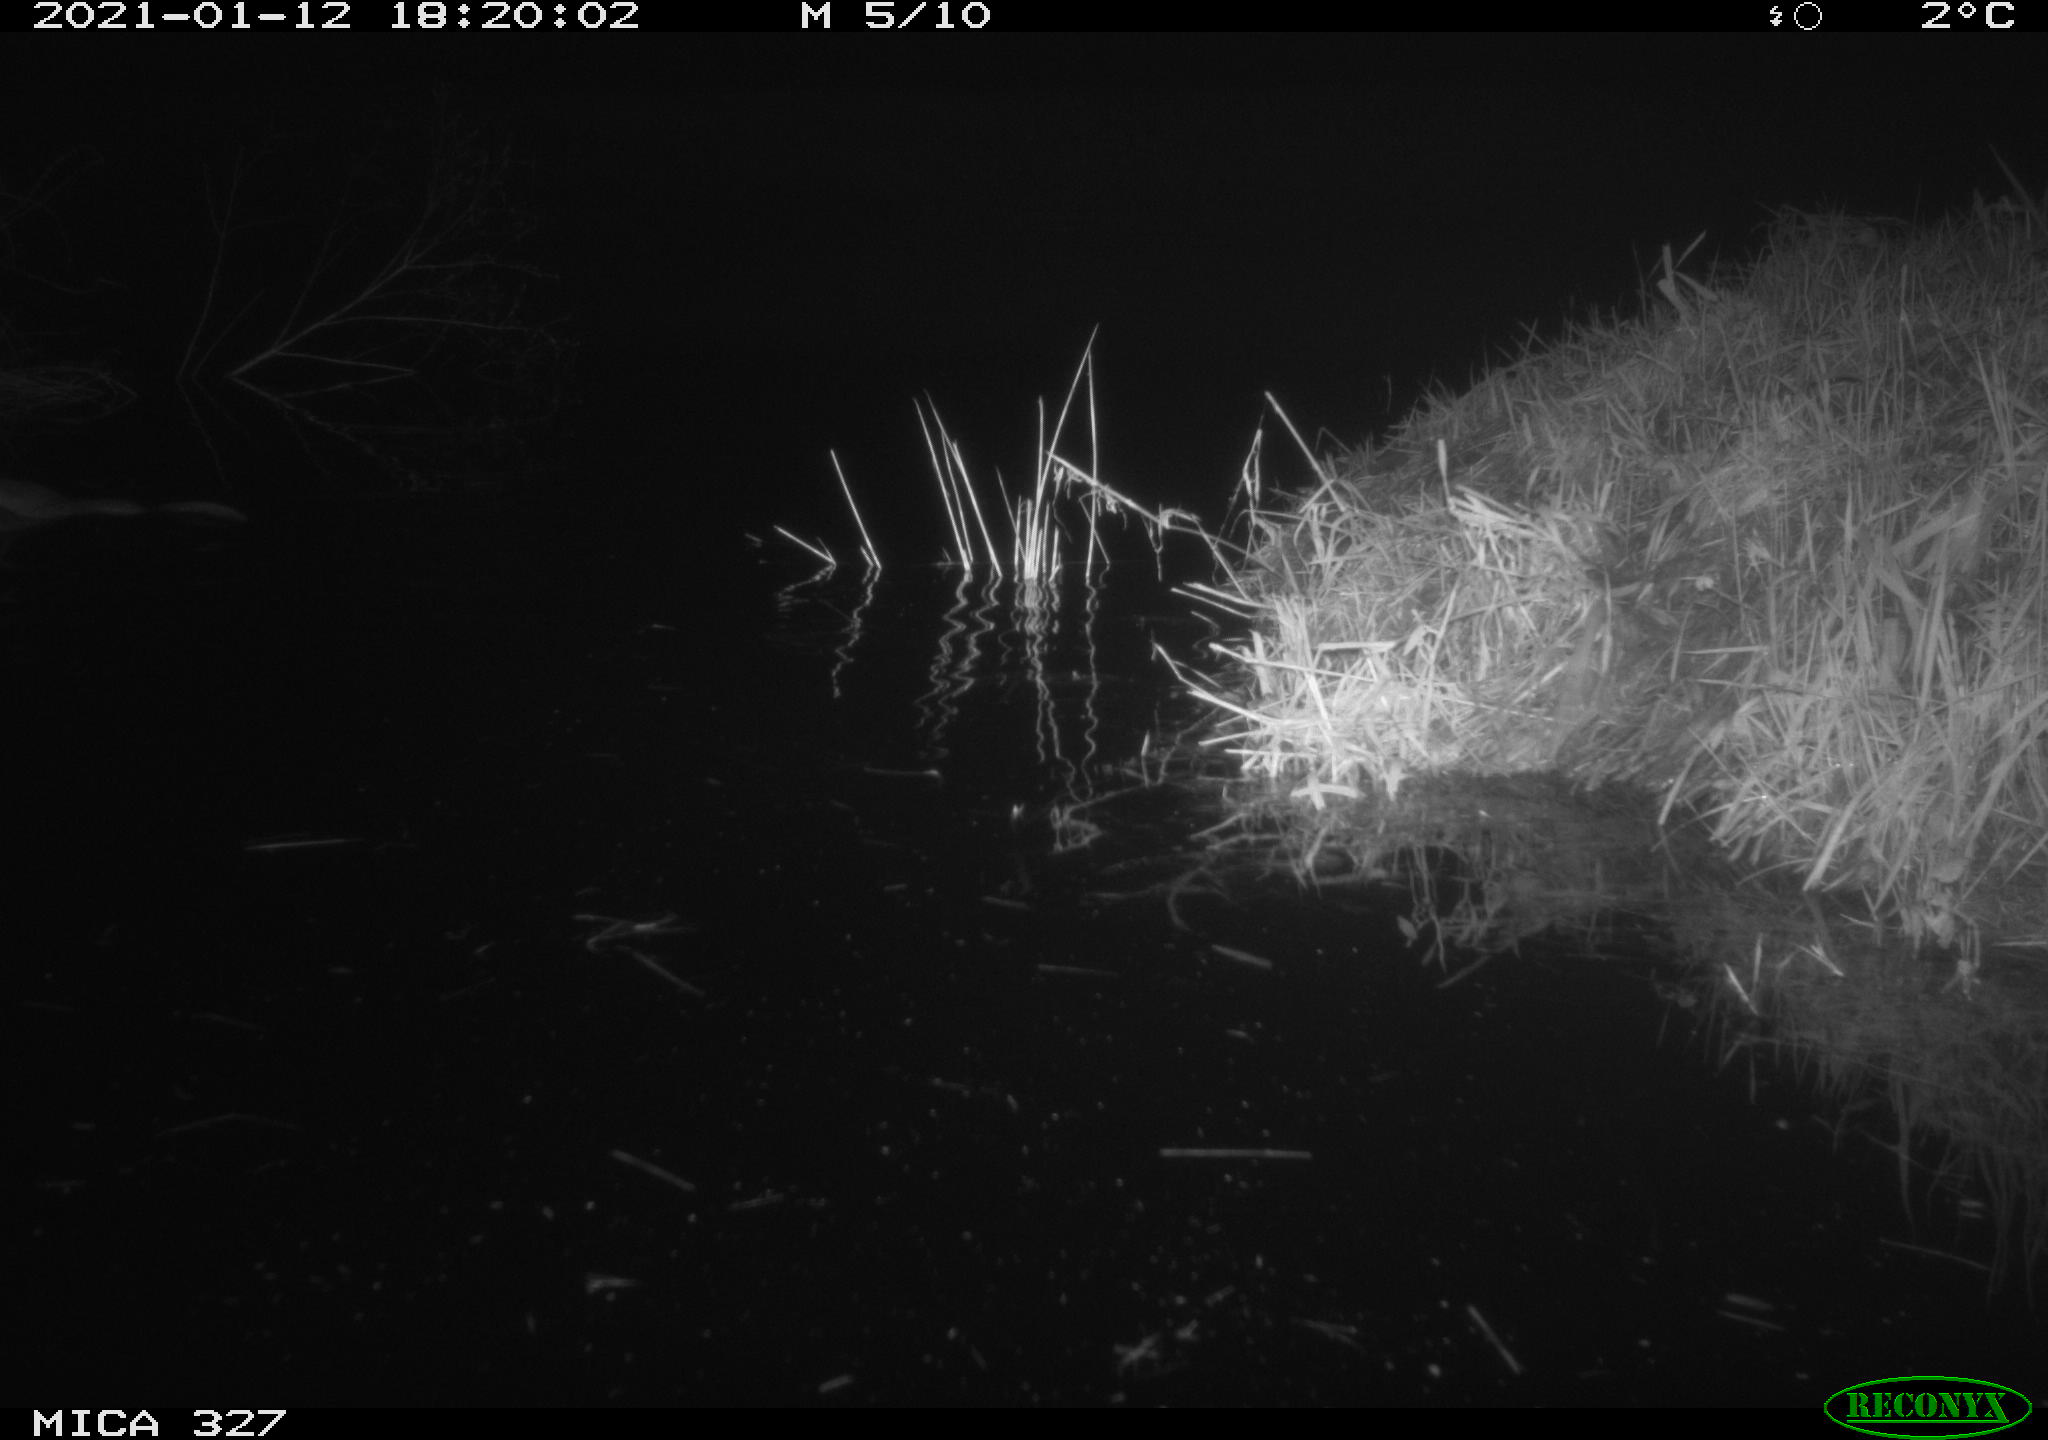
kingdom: Animalia
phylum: Chordata
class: Mammalia
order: Rodentia
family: Cricetidae
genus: Ondatra
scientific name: Ondatra zibethicus
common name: Muskrat
